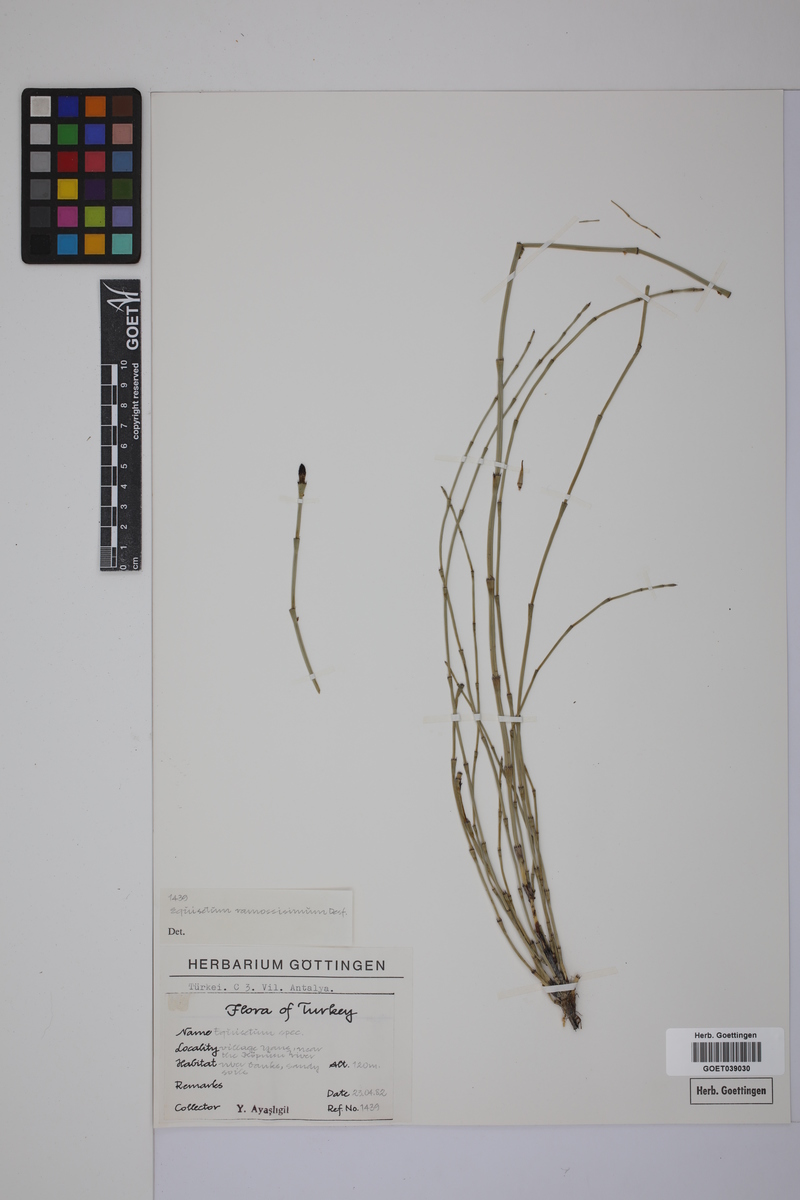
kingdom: Plantae
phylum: Tracheophyta
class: Polypodiopsida
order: Equisetales
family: Equisetaceae
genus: Equisetum
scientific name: Equisetum giganteum
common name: Giant horsetail
